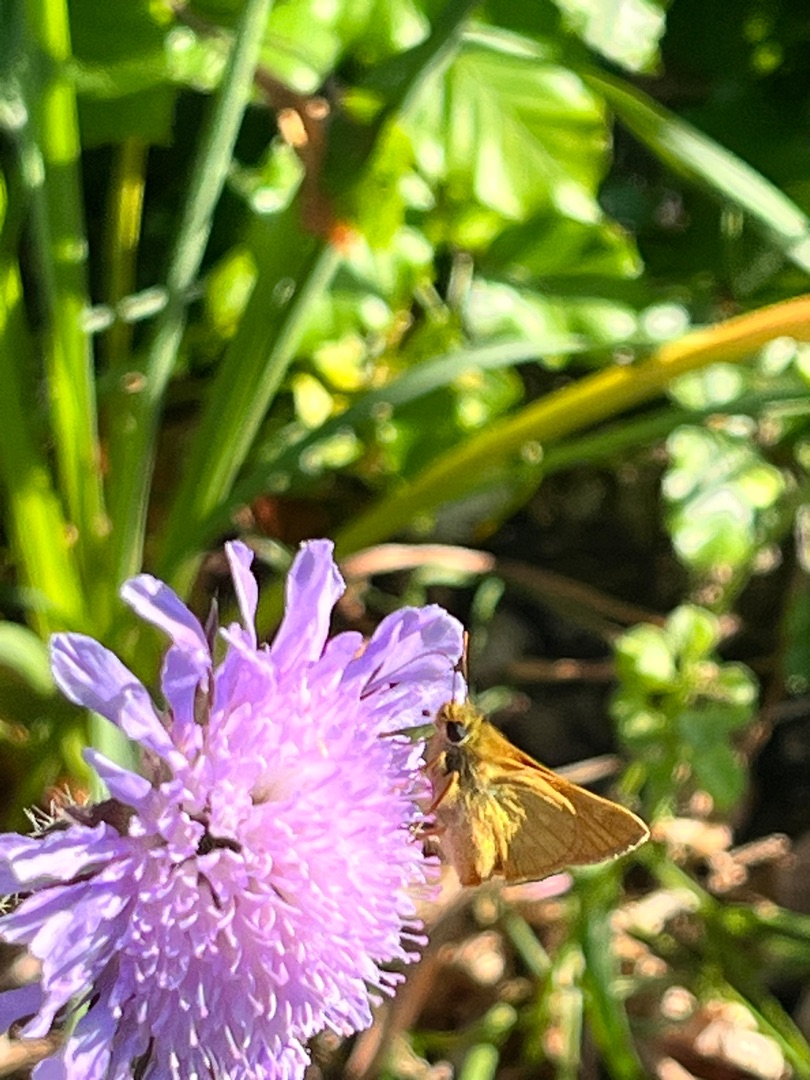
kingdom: Animalia
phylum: Arthropoda
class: Insecta
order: Lepidoptera
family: Hesperiidae
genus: Ochlodes
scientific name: Ochlodes venata
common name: Stor bredpande
